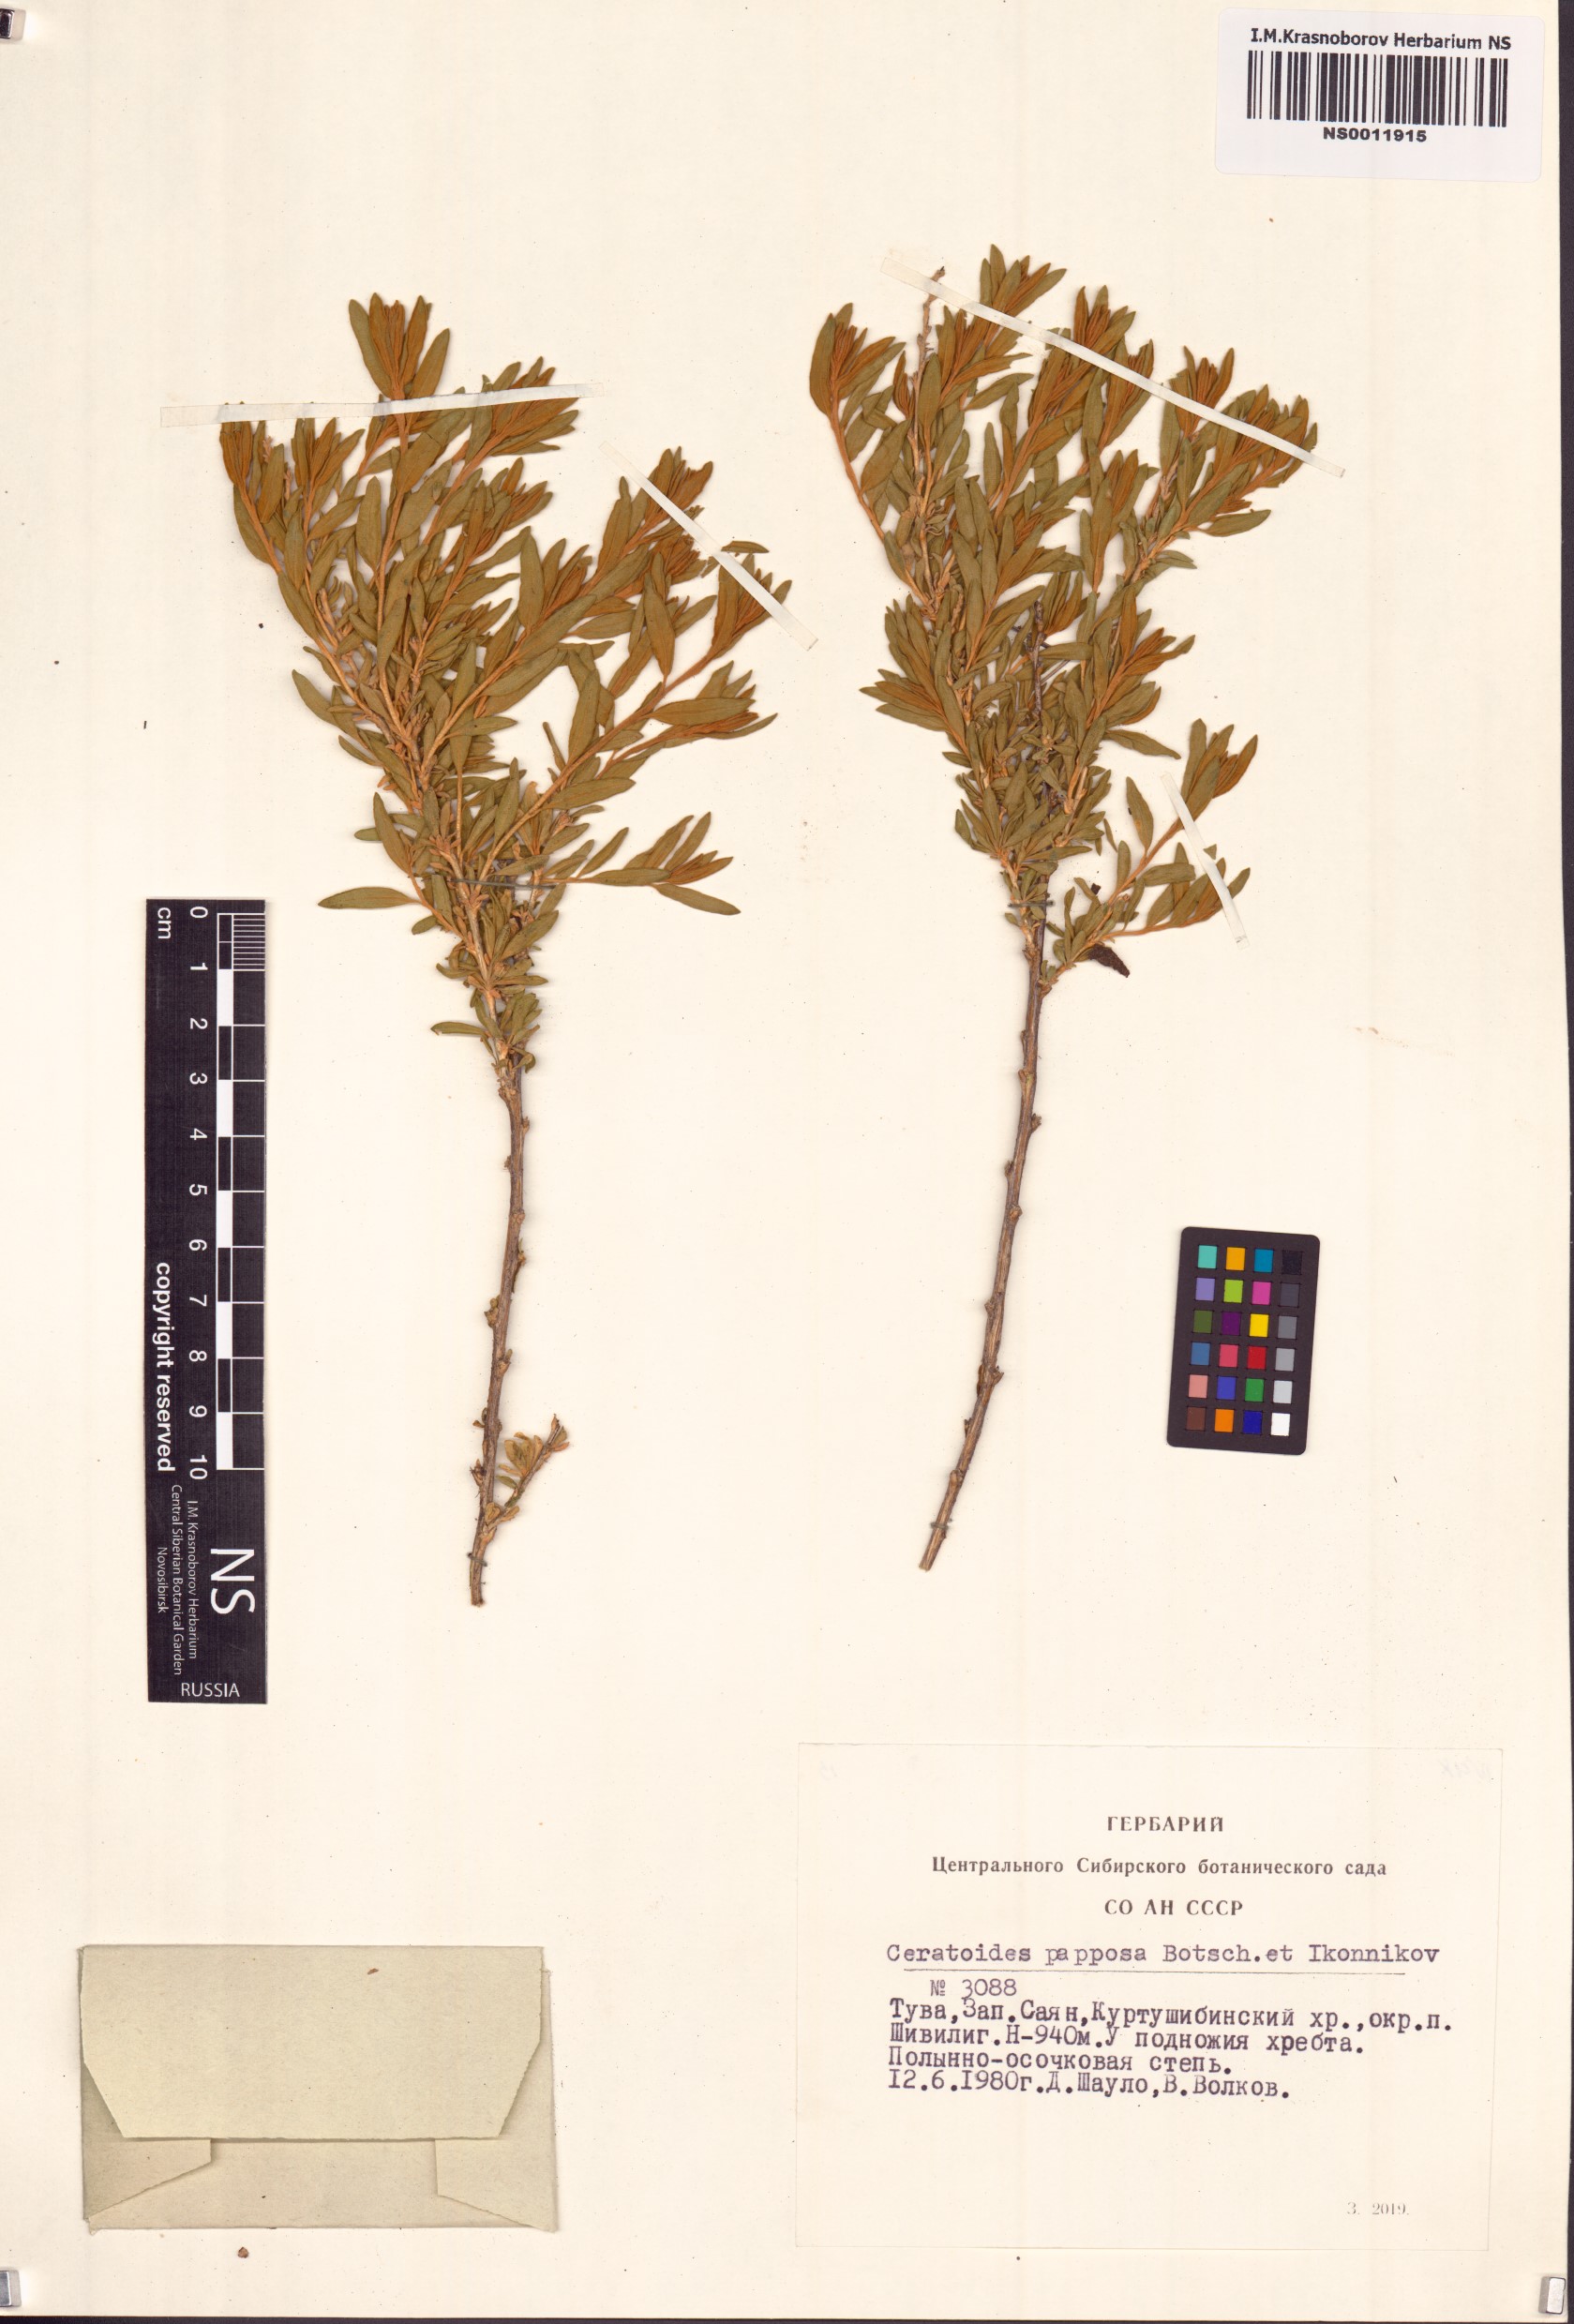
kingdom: Plantae
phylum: Tracheophyta
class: Magnoliopsida
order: Caryophyllales
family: Amaranthaceae
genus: Krascheninnikovia
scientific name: Krascheninnikovia ceratoides
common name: Pamirian winterfat
